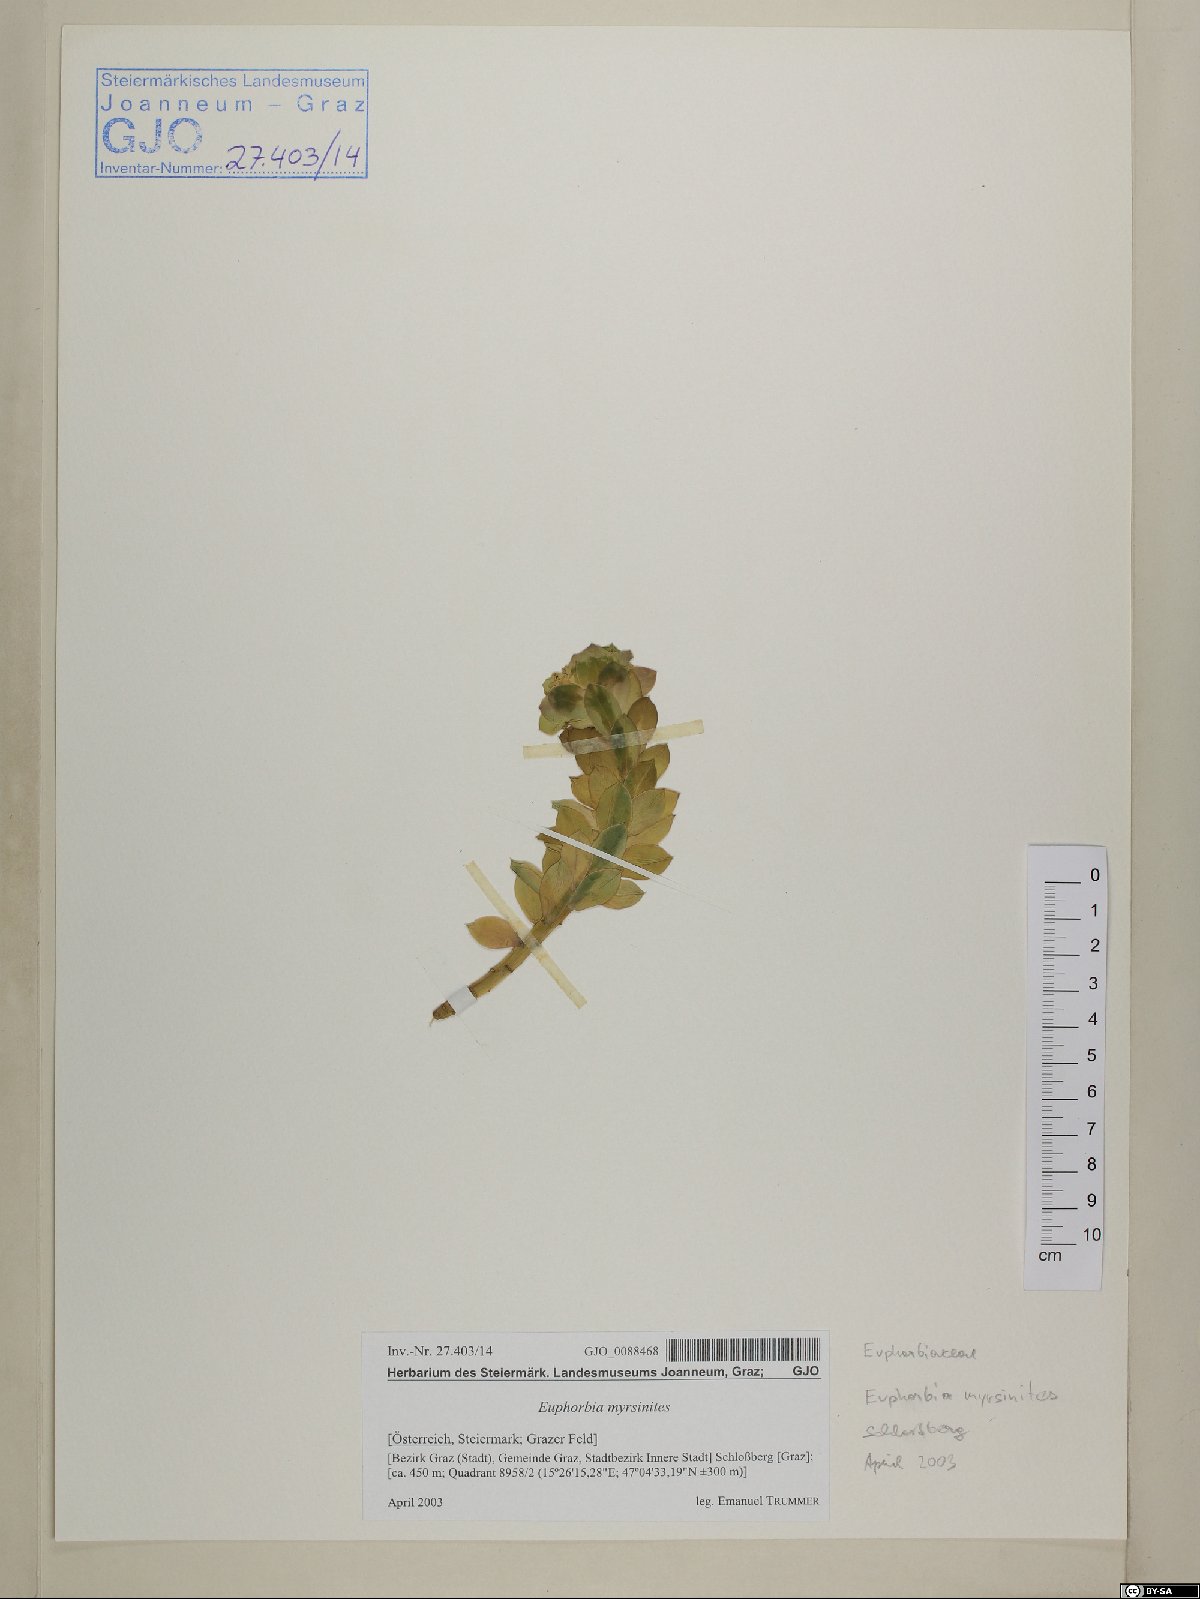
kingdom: Plantae
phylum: Tracheophyta
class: Magnoliopsida
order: Malpighiales
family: Euphorbiaceae
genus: Euphorbia
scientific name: Euphorbia myrsinites
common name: Myrtle spurge
